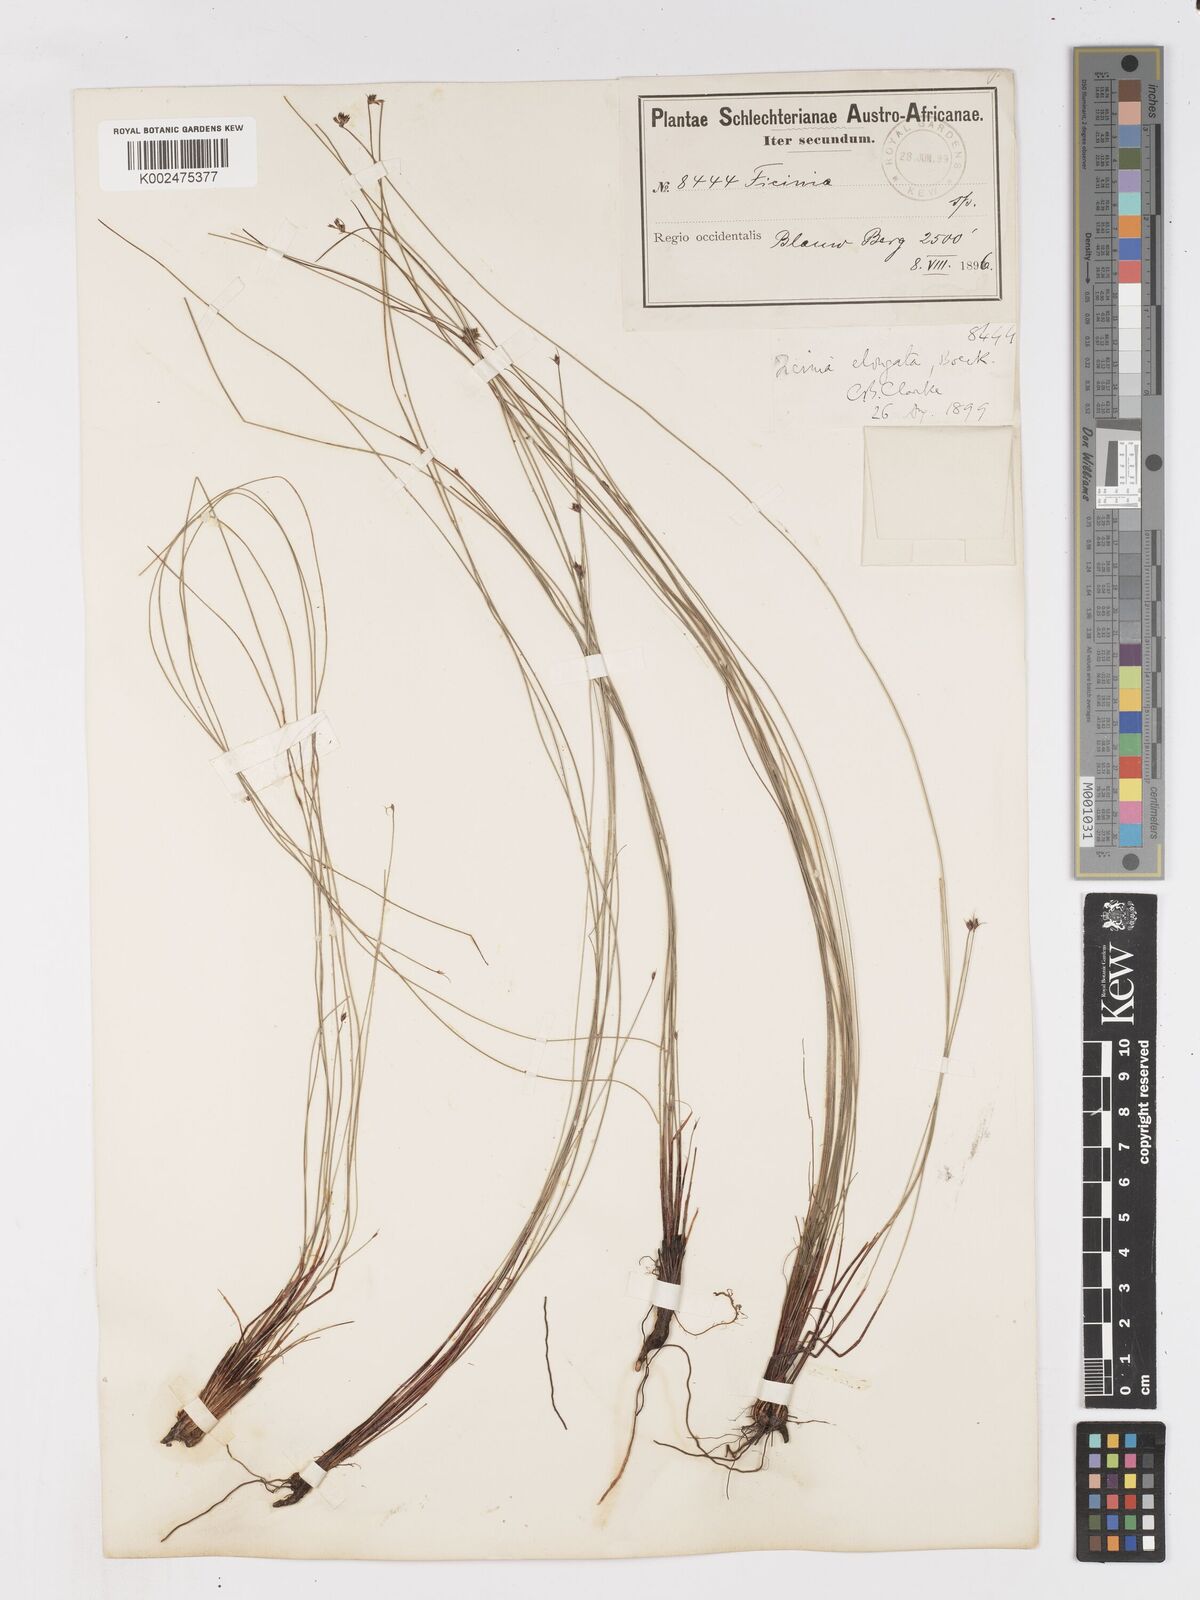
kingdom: Plantae
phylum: Tracheophyta
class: Liliopsida
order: Poales
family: Cyperaceae
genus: Ficinia
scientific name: Ficinia acuminata
